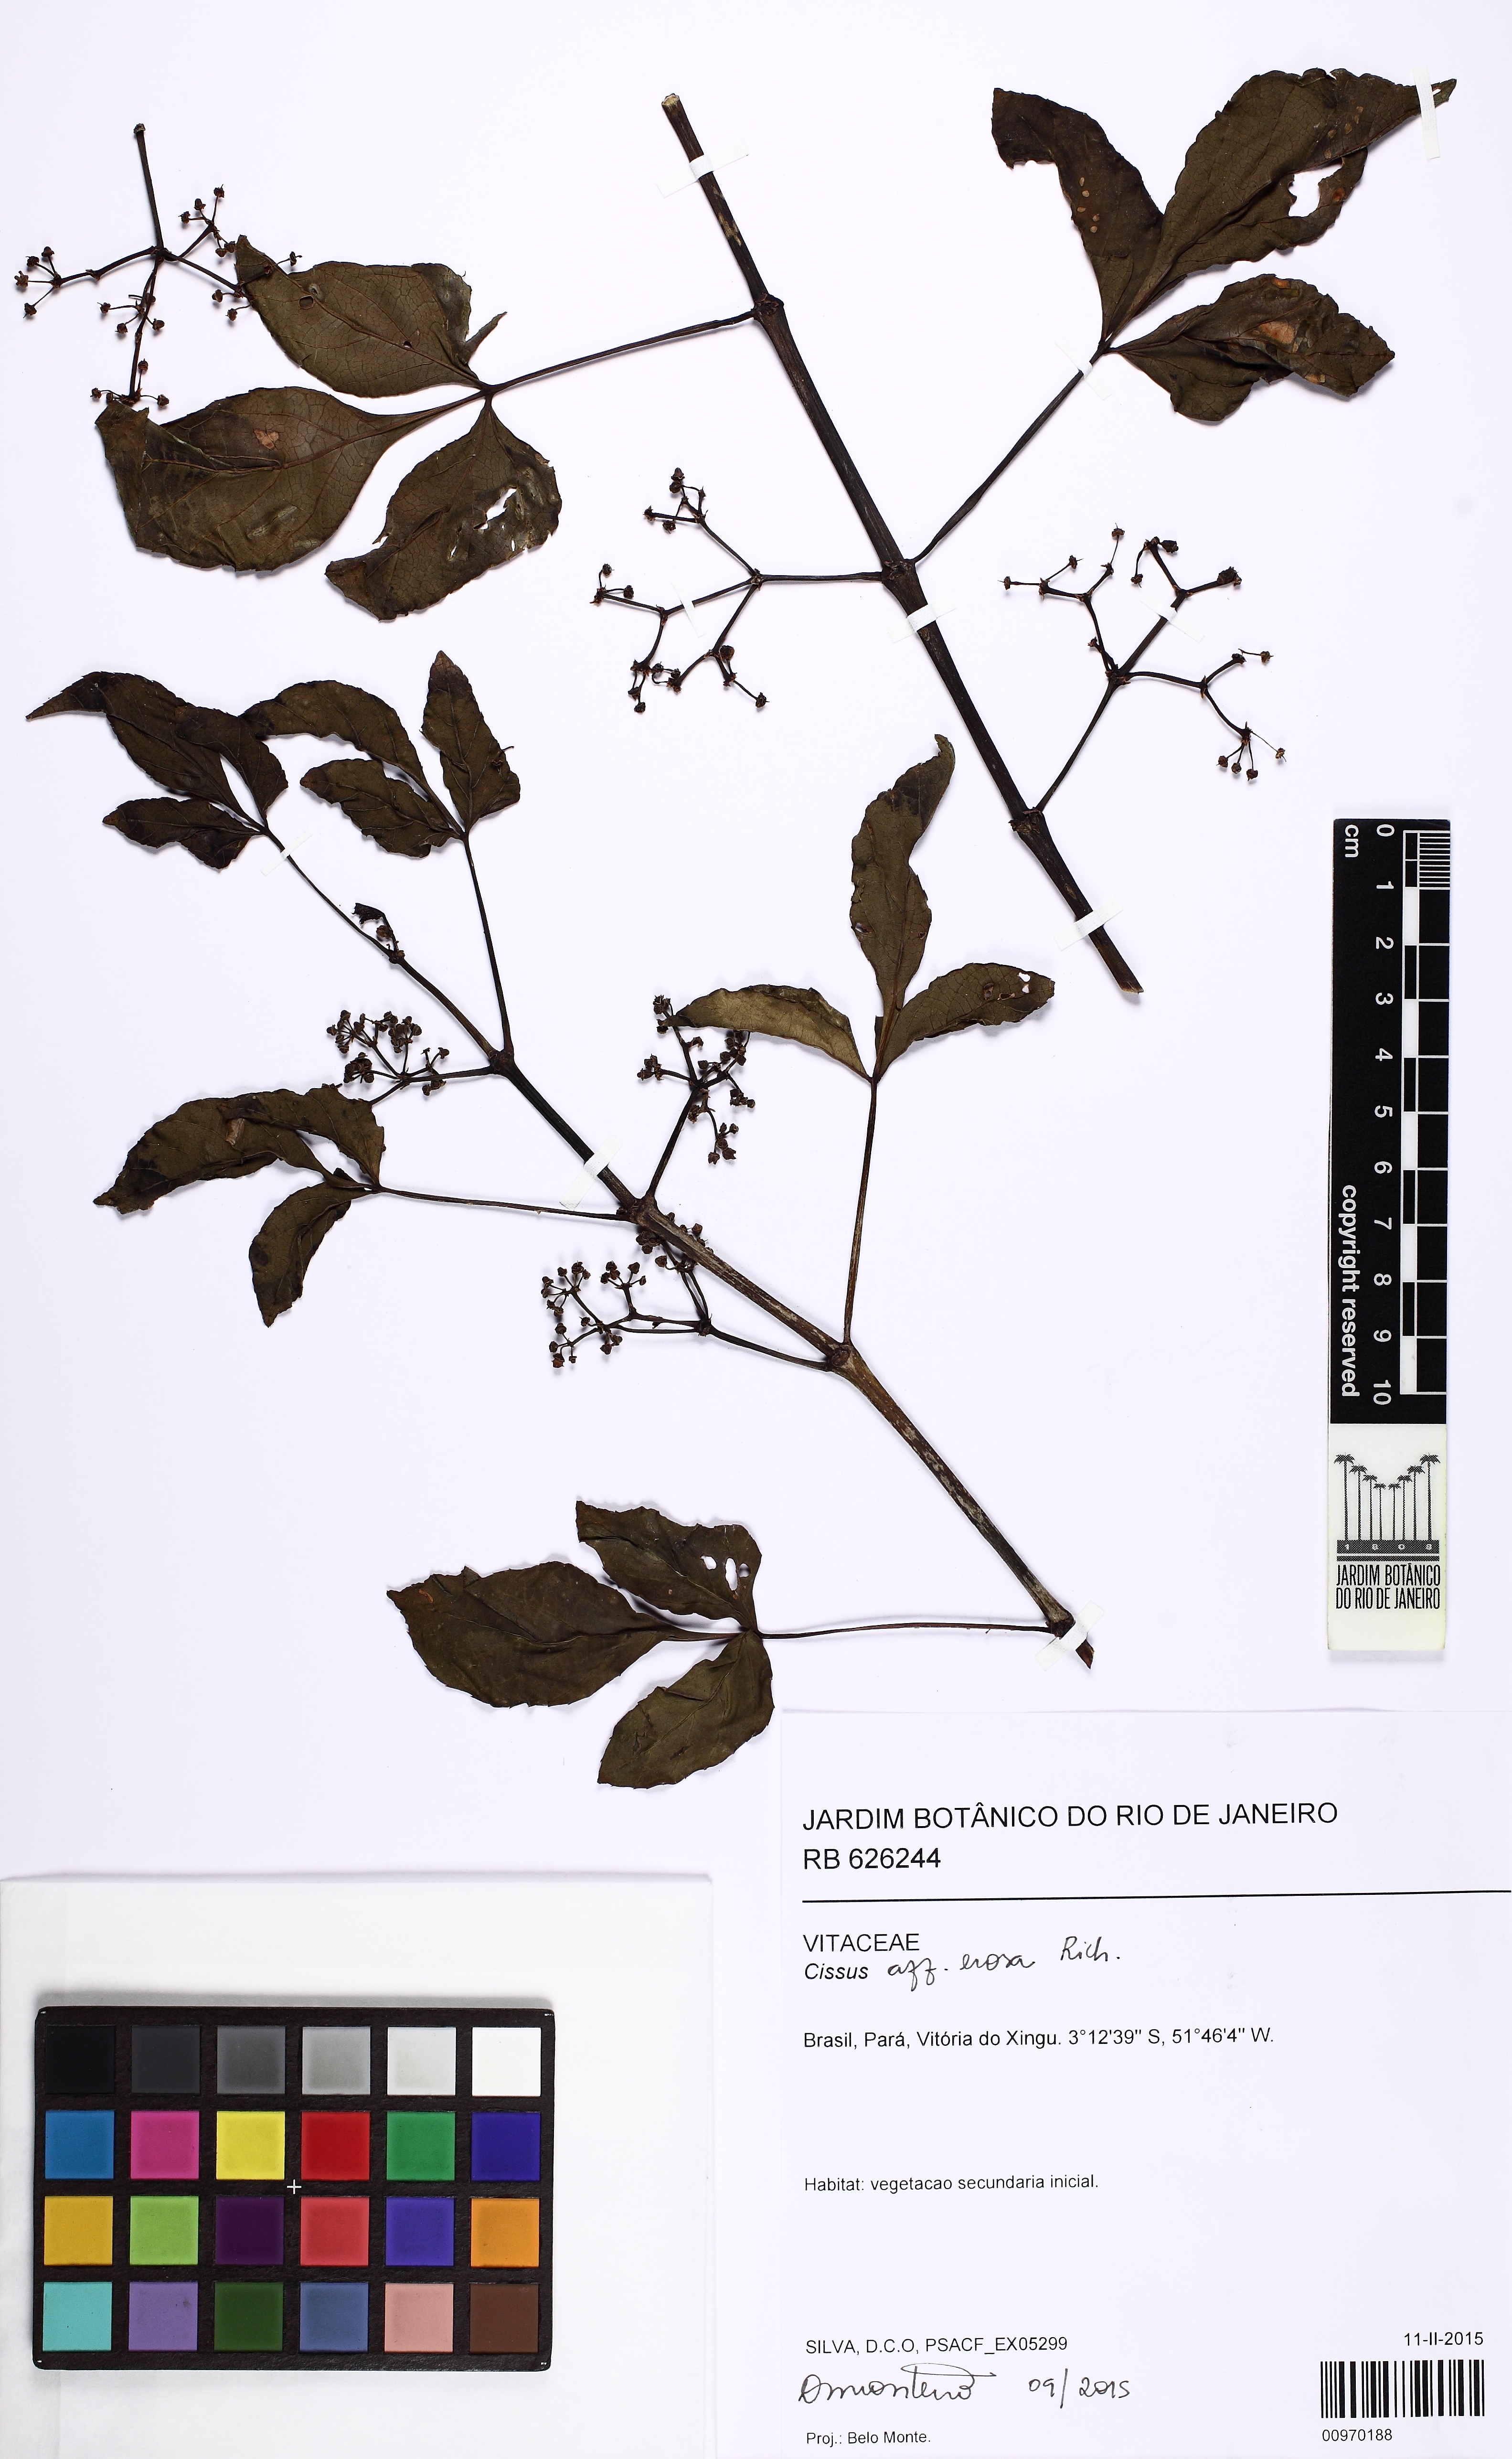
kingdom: Plantae
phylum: Tracheophyta
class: Magnoliopsida
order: Vitales
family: Vitaceae
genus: Cissus
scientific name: Cissus erosa
